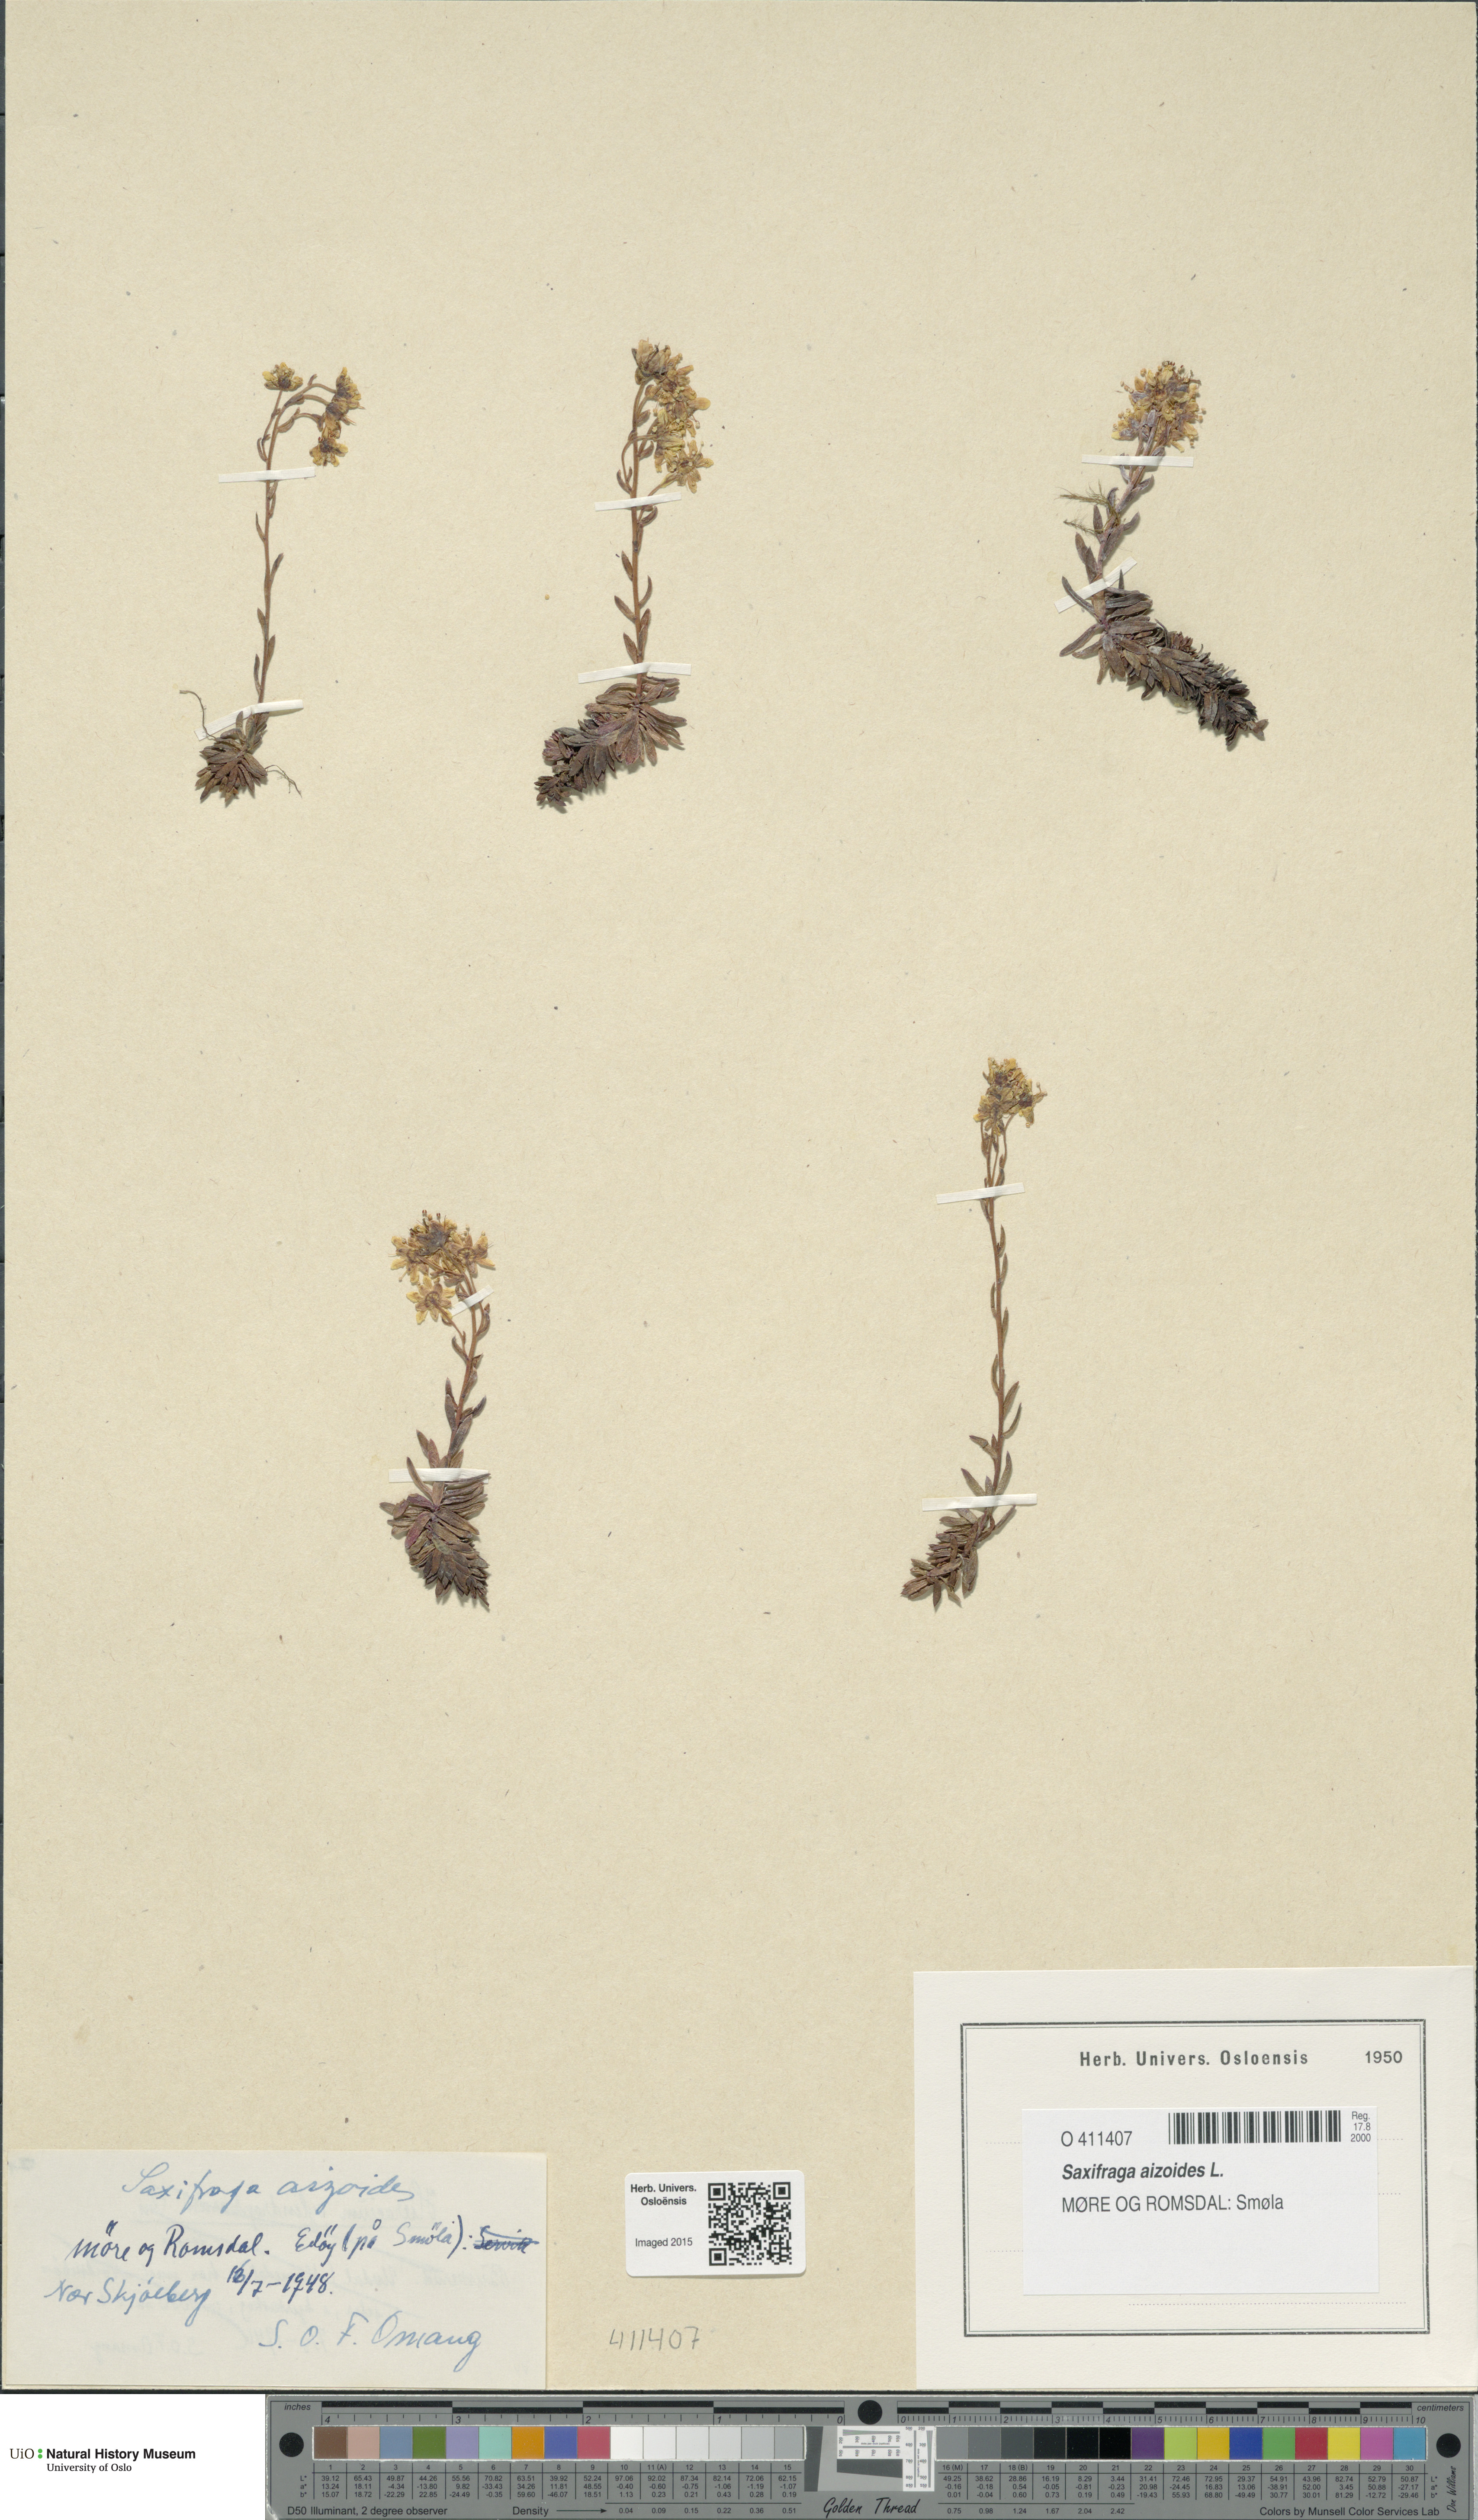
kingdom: Plantae
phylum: Tracheophyta
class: Magnoliopsida
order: Saxifragales
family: Saxifragaceae
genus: Saxifraga
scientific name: Saxifraga aizoides
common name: Yellow mountain saxifrage
